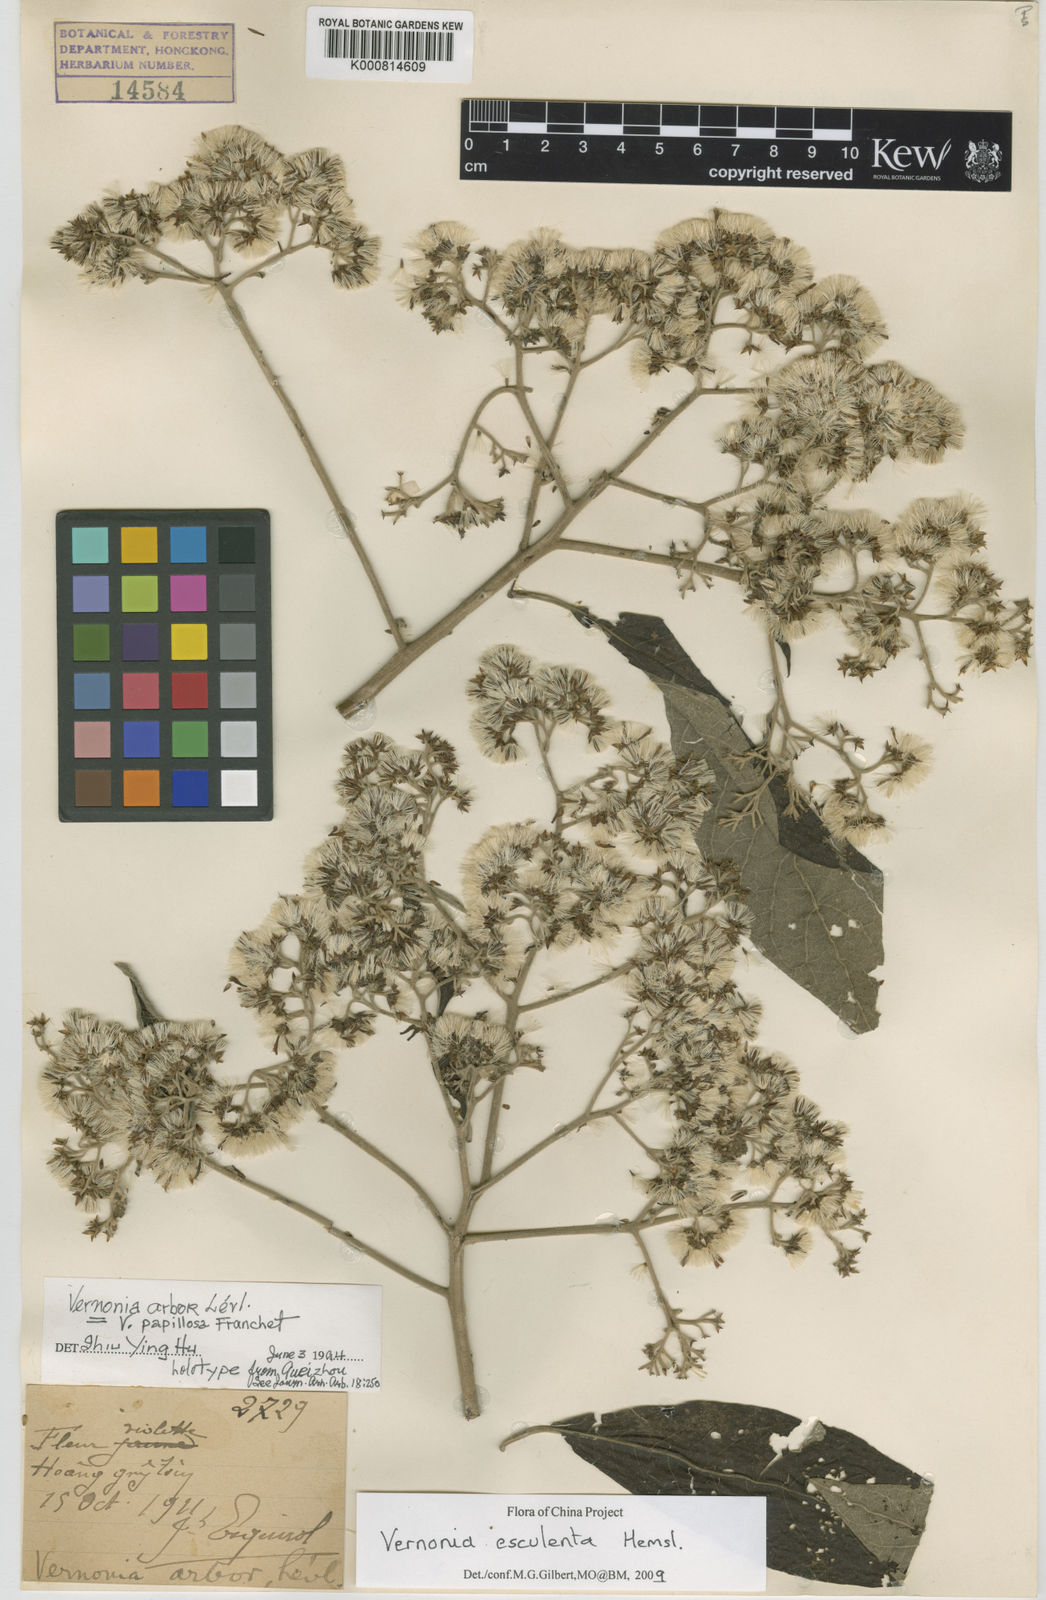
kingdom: Plantae
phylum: Tracheophyta
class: Magnoliopsida
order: Asterales
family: Asteraceae
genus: Vernonia
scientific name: Vernonia
